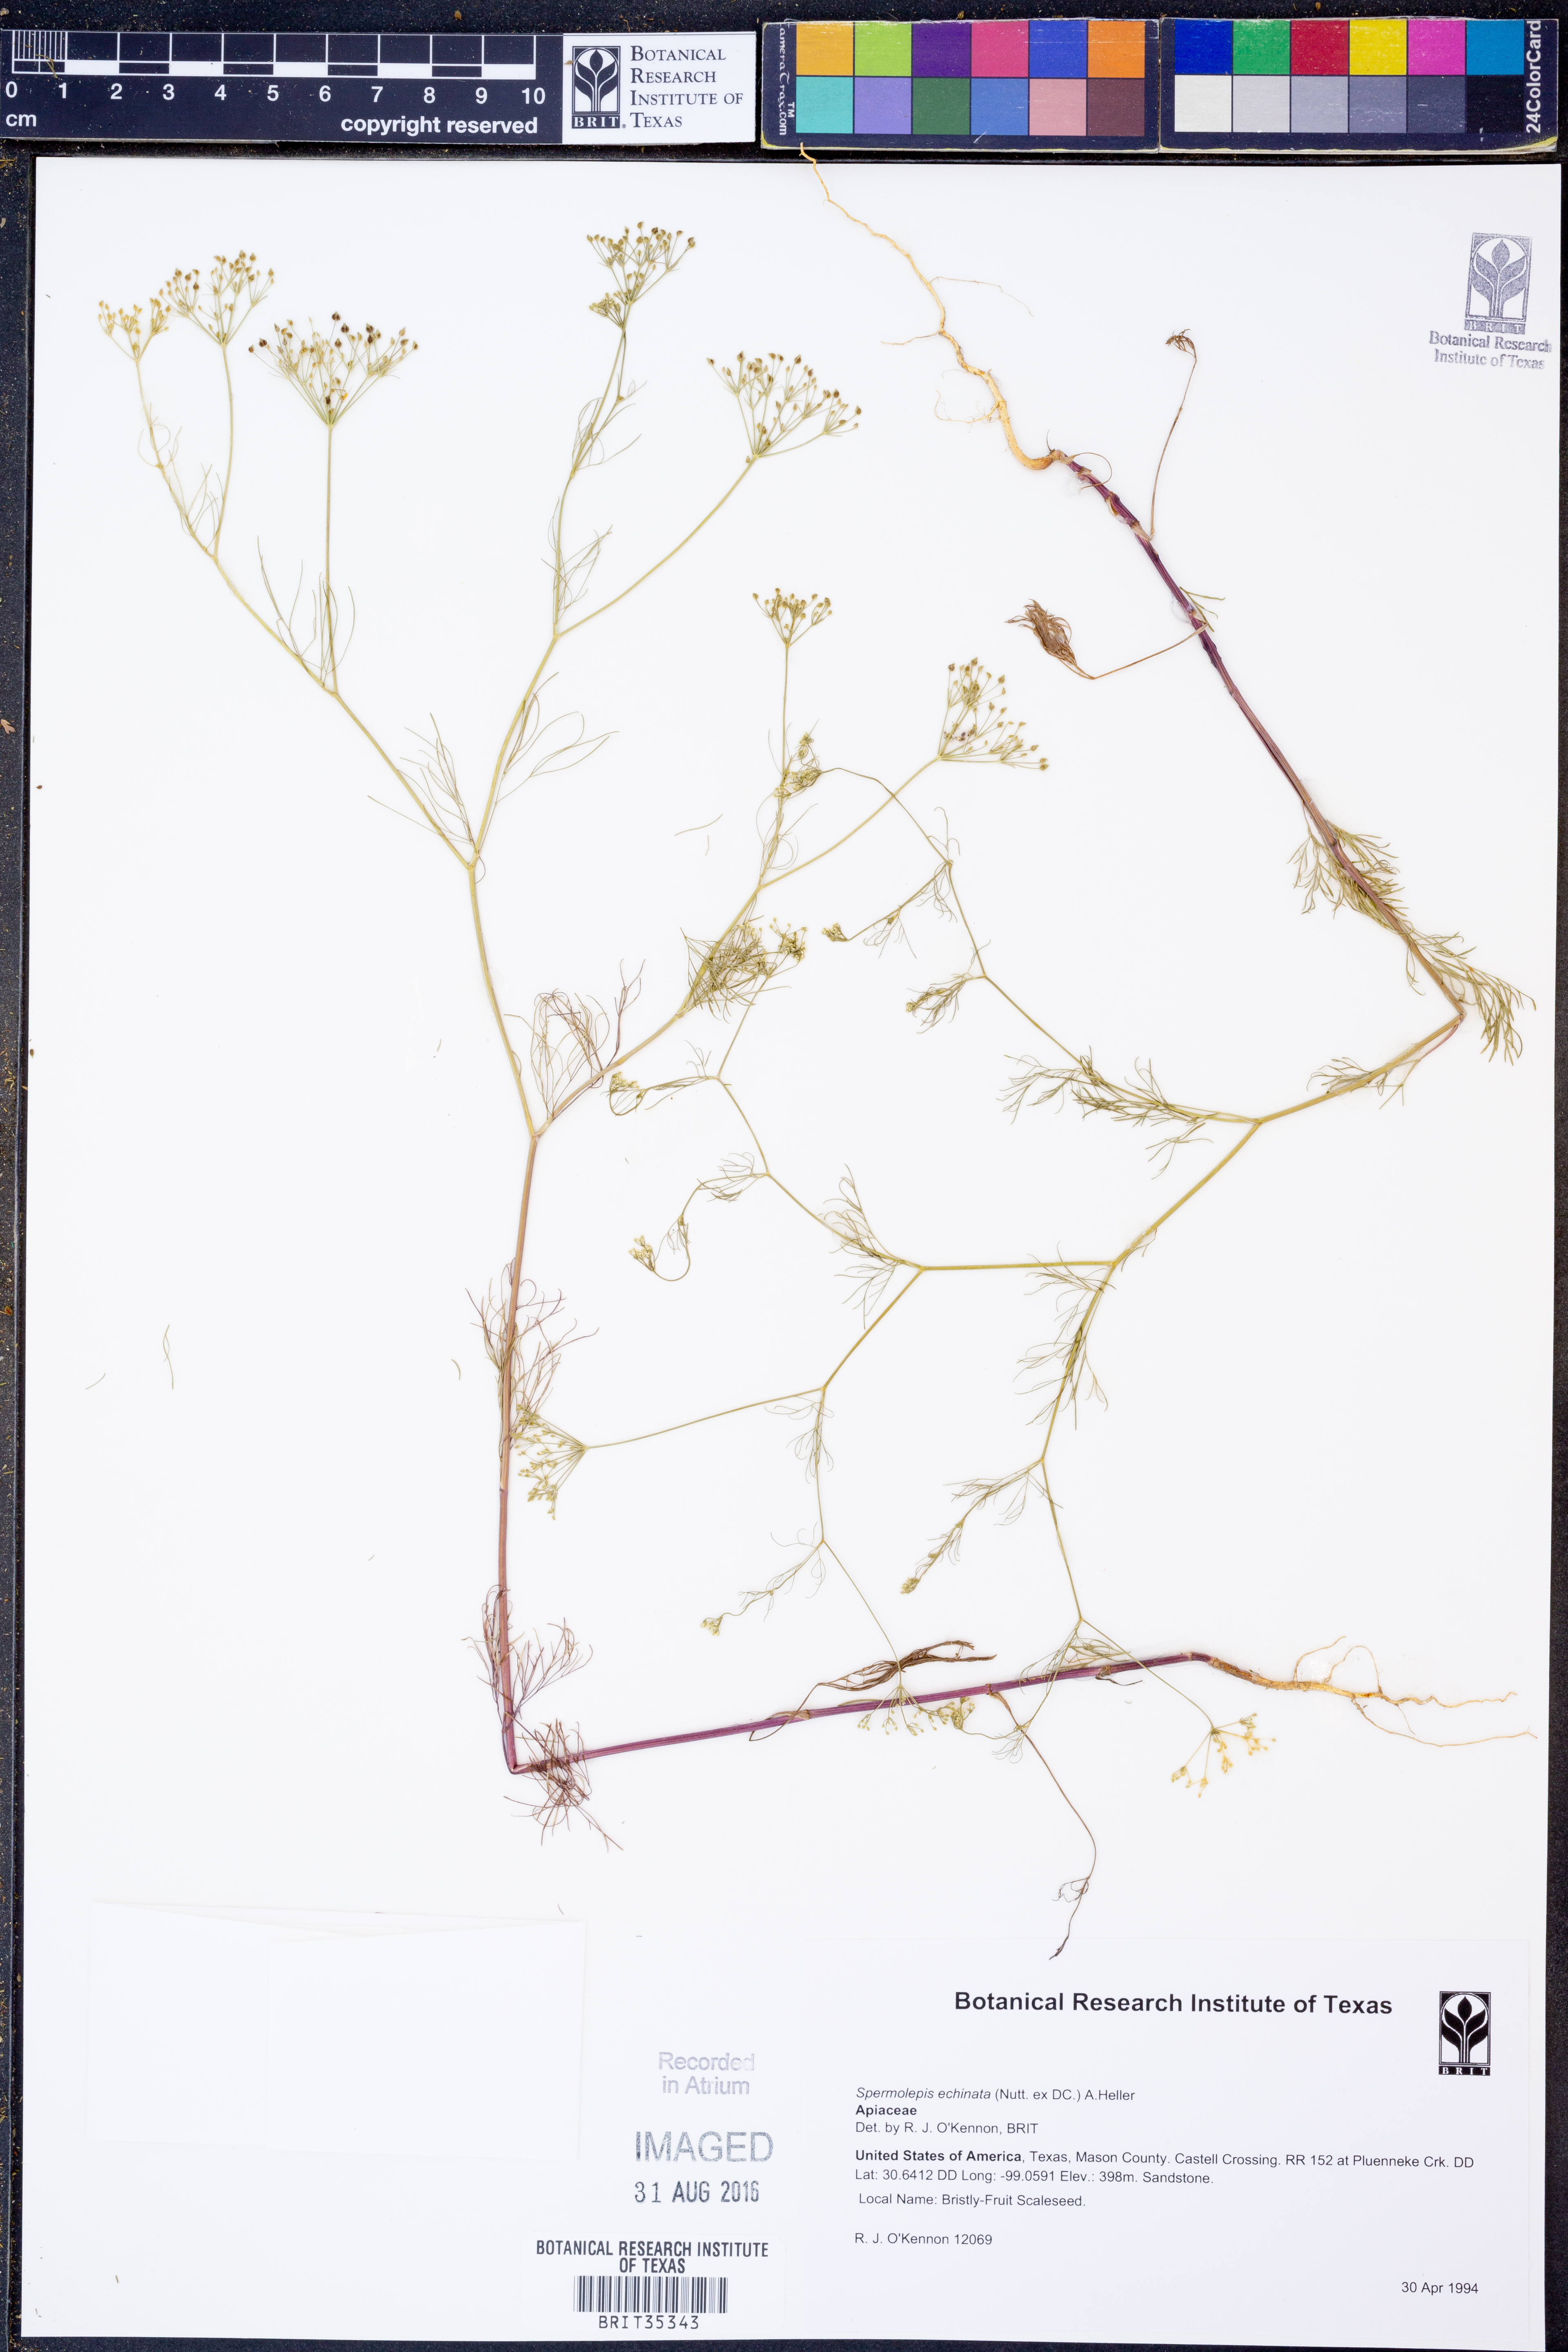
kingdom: Plantae
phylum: Tracheophyta
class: Magnoliopsida
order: Apiales
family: Apiaceae
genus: Spermolepis
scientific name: Spermolepis echinata
